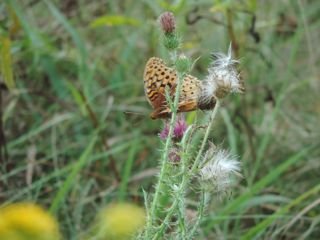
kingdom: Animalia
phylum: Arthropoda
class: Insecta
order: Lepidoptera
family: Nymphalidae
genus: Speyeria
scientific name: Speyeria cybele
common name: Great Spangled Fritillary
